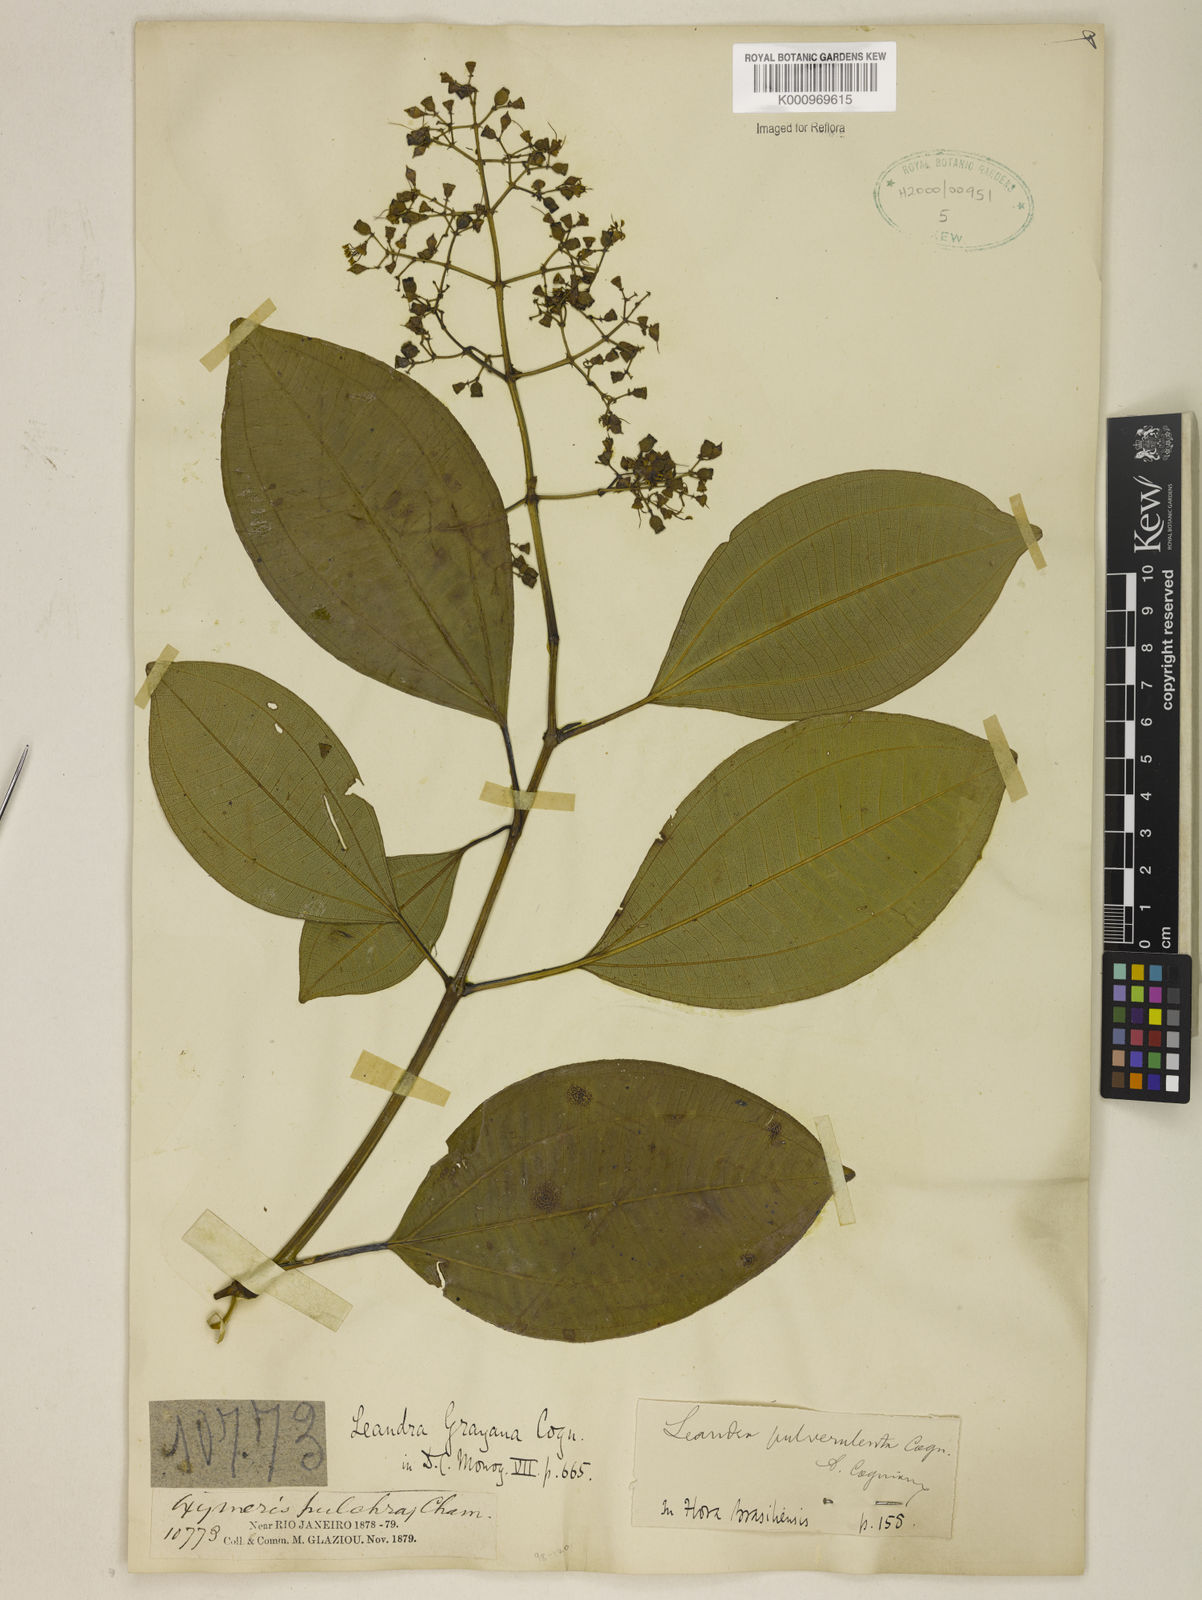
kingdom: Plantae
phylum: Tracheophyta
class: Magnoliopsida
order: Myrtales
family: Melastomataceae
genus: Miconia
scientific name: Miconia leagrayana
